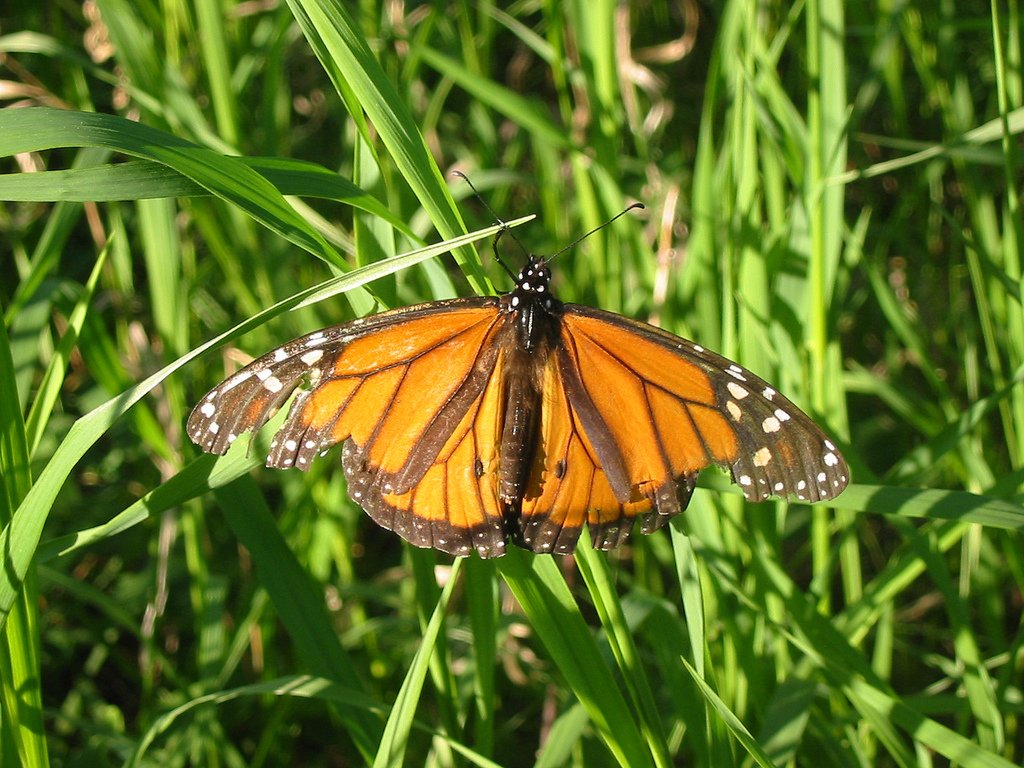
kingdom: Animalia
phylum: Arthropoda
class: Insecta
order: Lepidoptera
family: Nymphalidae
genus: Danaus
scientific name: Danaus plexippus
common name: Monarch
